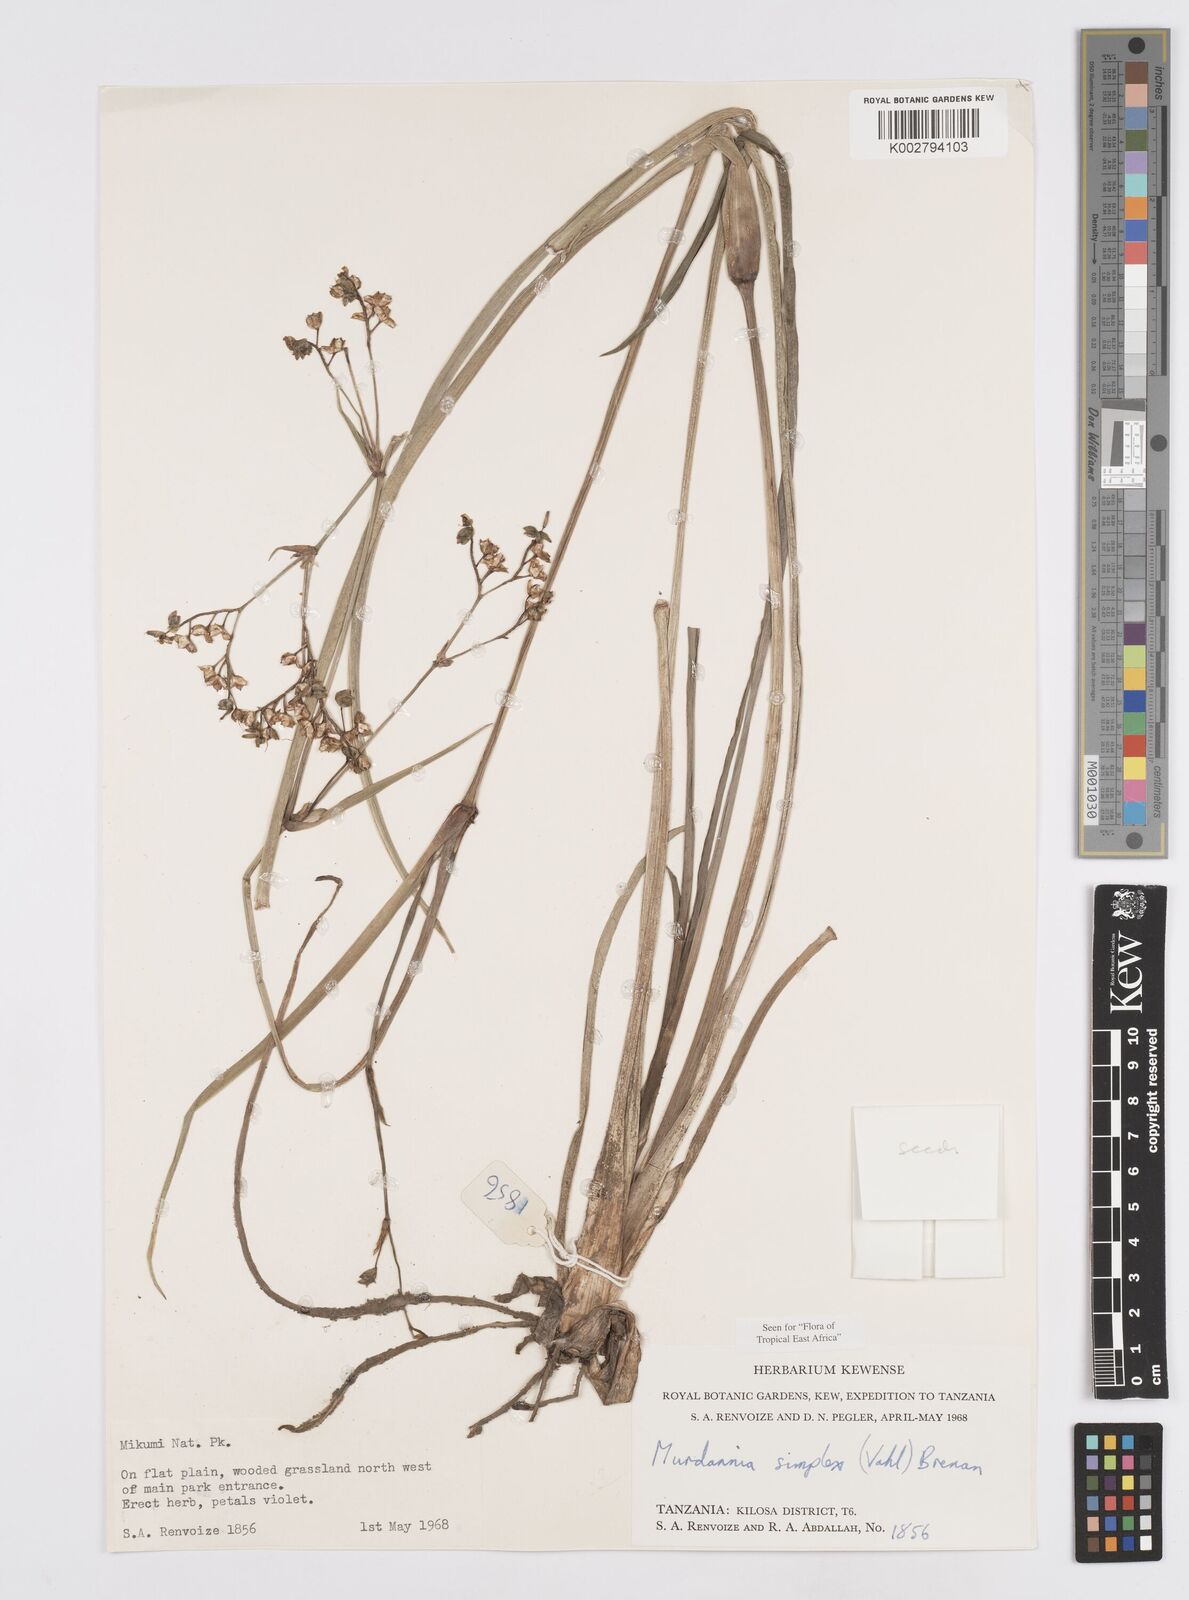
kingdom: Plantae
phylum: Tracheophyta
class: Liliopsida
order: Commelinales
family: Commelinaceae
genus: Murdannia
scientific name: Murdannia simplex
